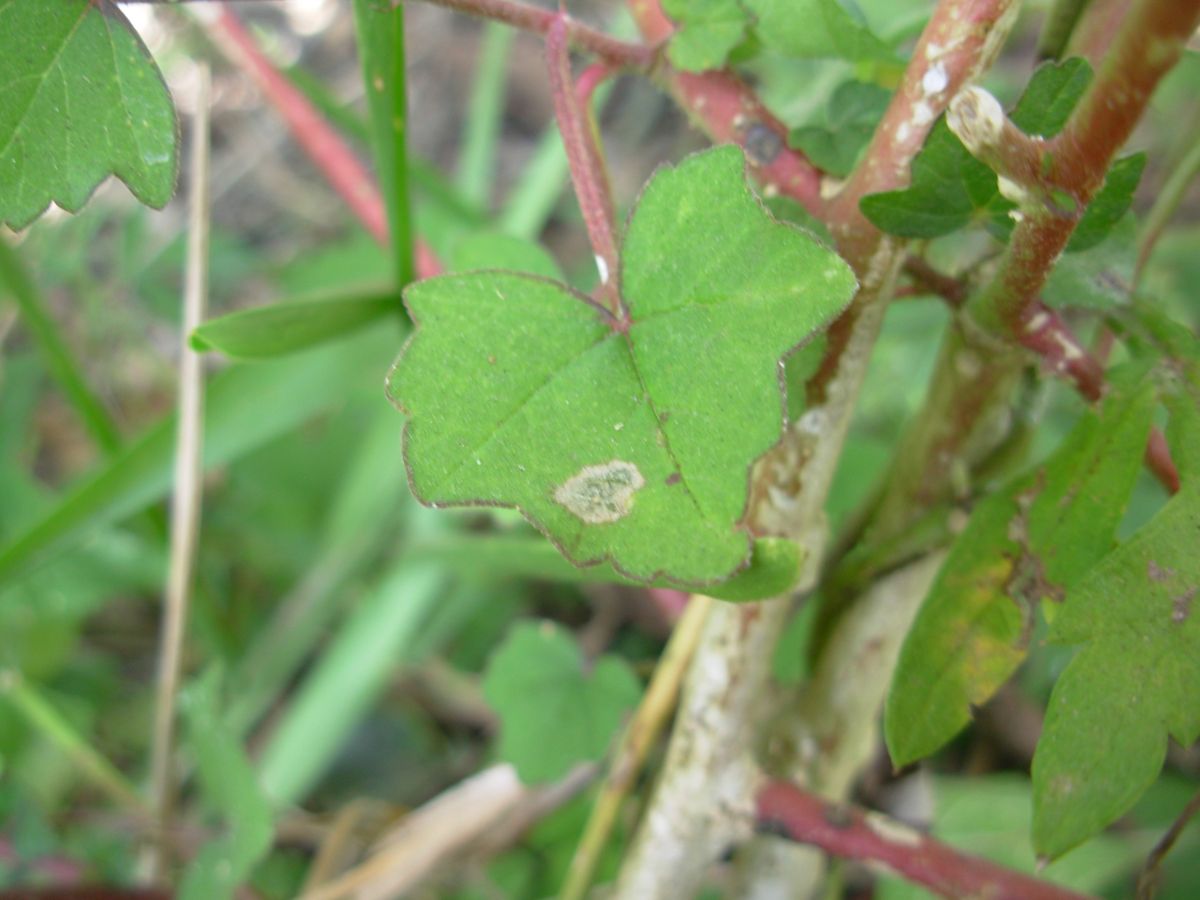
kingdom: Plantae
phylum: Tracheophyta
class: Magnoliopsida
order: Malvales
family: Malvaceae
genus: Anoda
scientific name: Anoda cristata
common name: Spurred anoda
